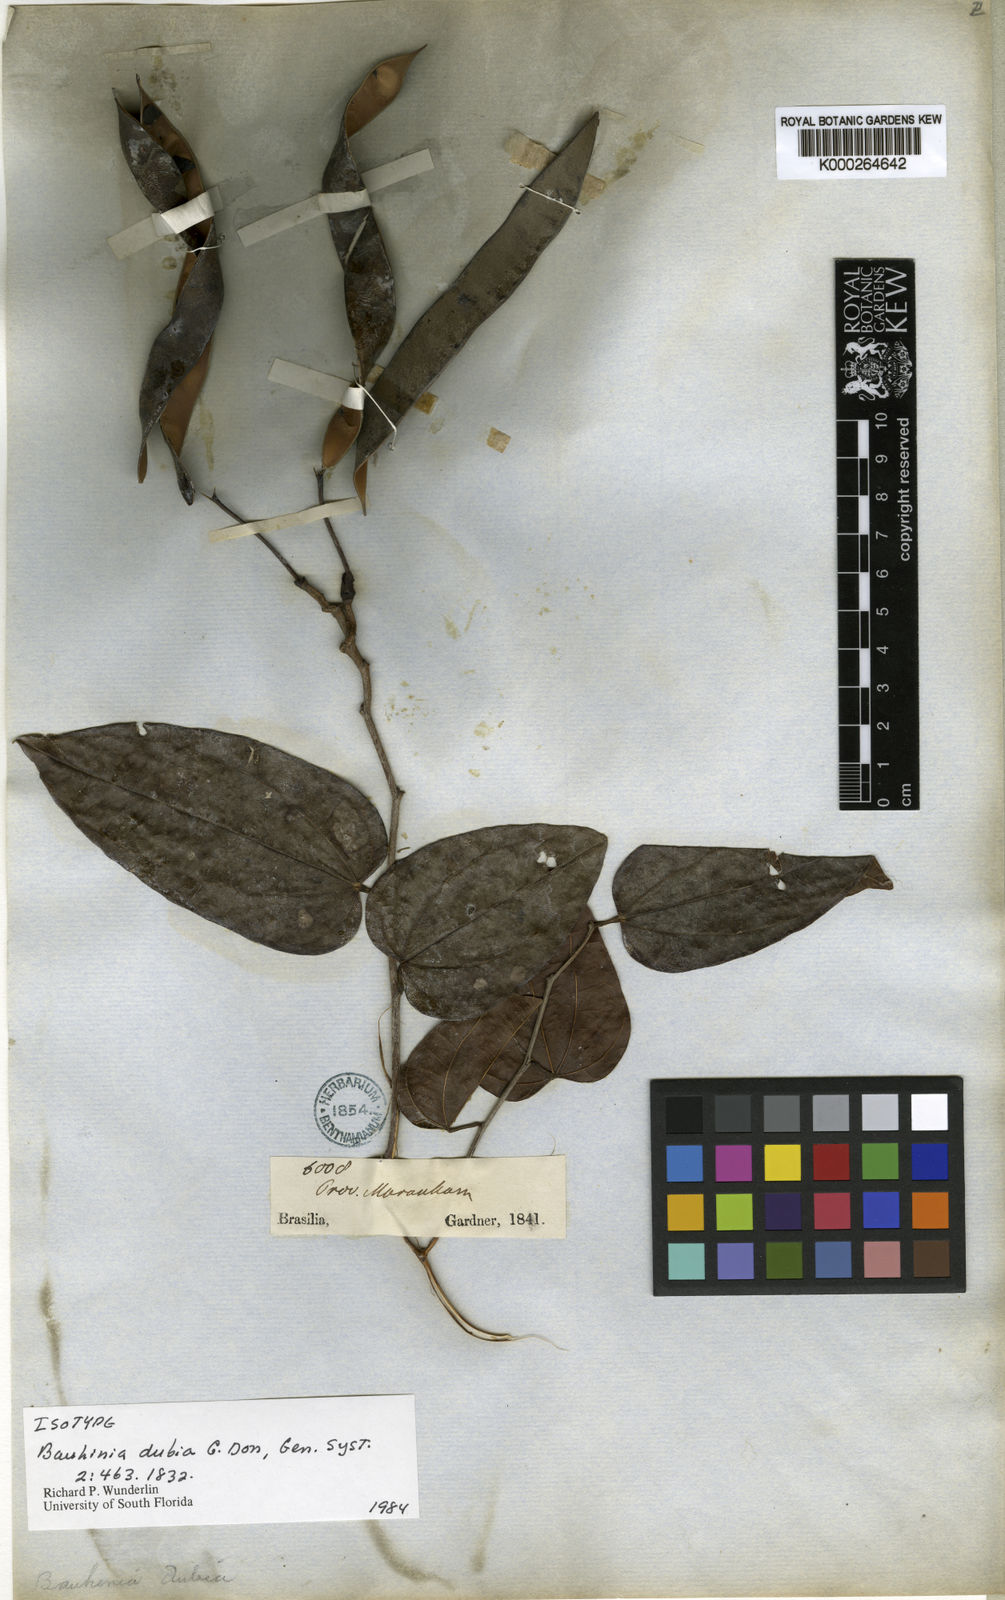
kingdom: Plantae
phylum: Tracheophyta
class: Magnoliopsida
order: Fabales
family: Fabaceae
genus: Bauhinia
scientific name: Bauhinia dubia
